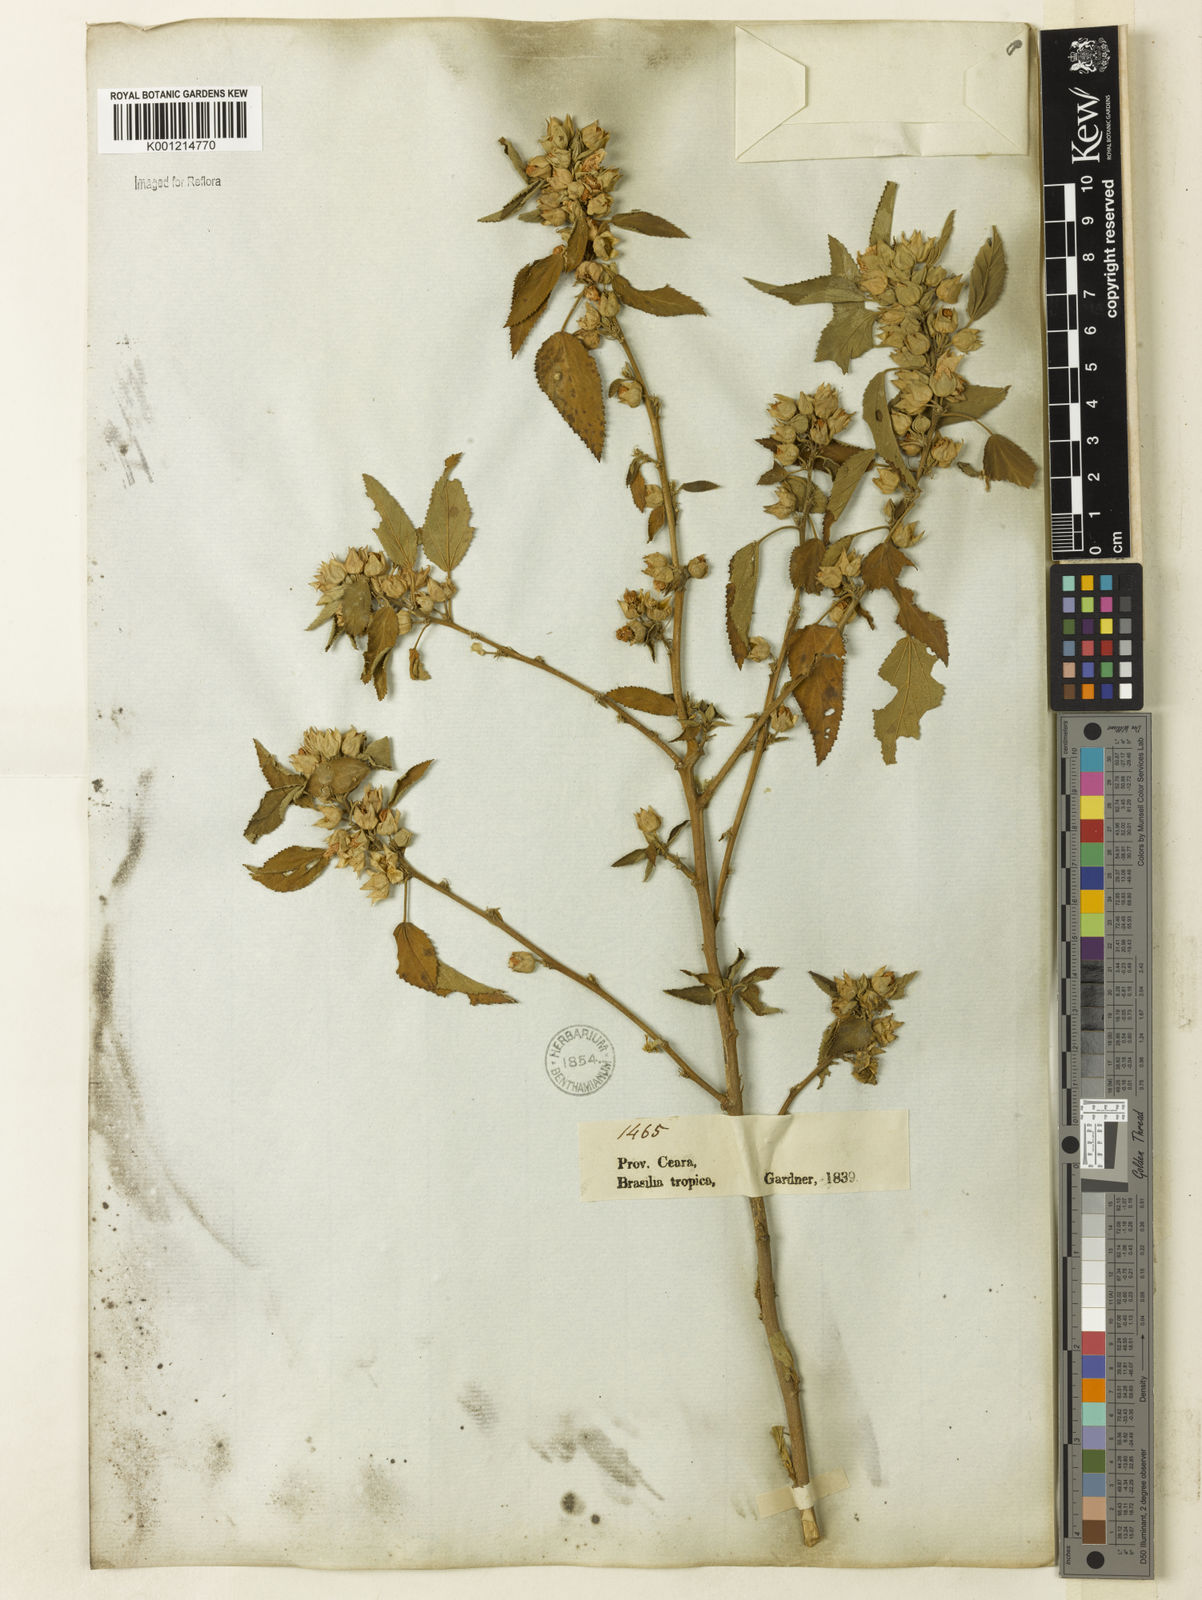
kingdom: Plantae
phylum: Tracheophyta
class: Magnoliopsida
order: Malvales
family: Malvaceae
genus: Sida
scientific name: Sida ulei
